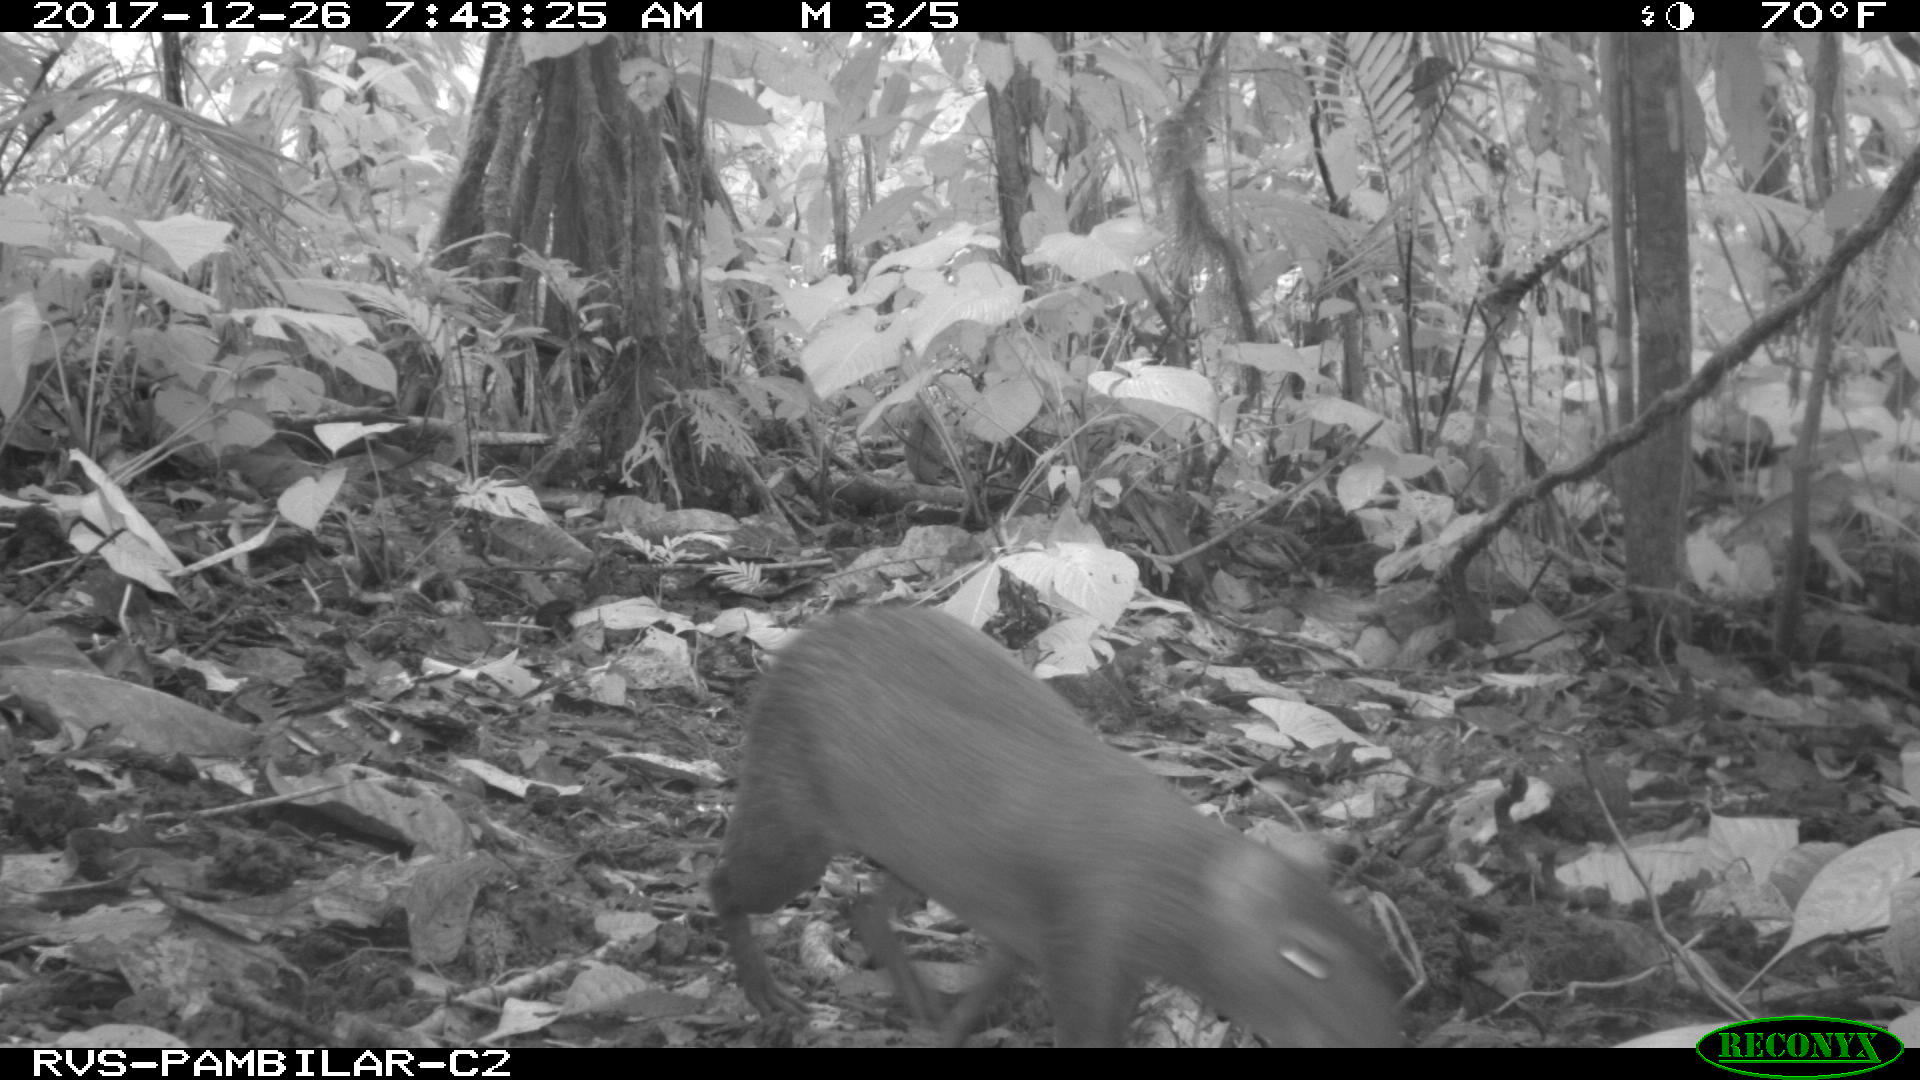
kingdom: Animalia
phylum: Chordata
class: Mammalia
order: Rodentia
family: Dasyproctidae
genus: Dasyprocta
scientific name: Dasyprocta punctata
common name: Central american agouti
